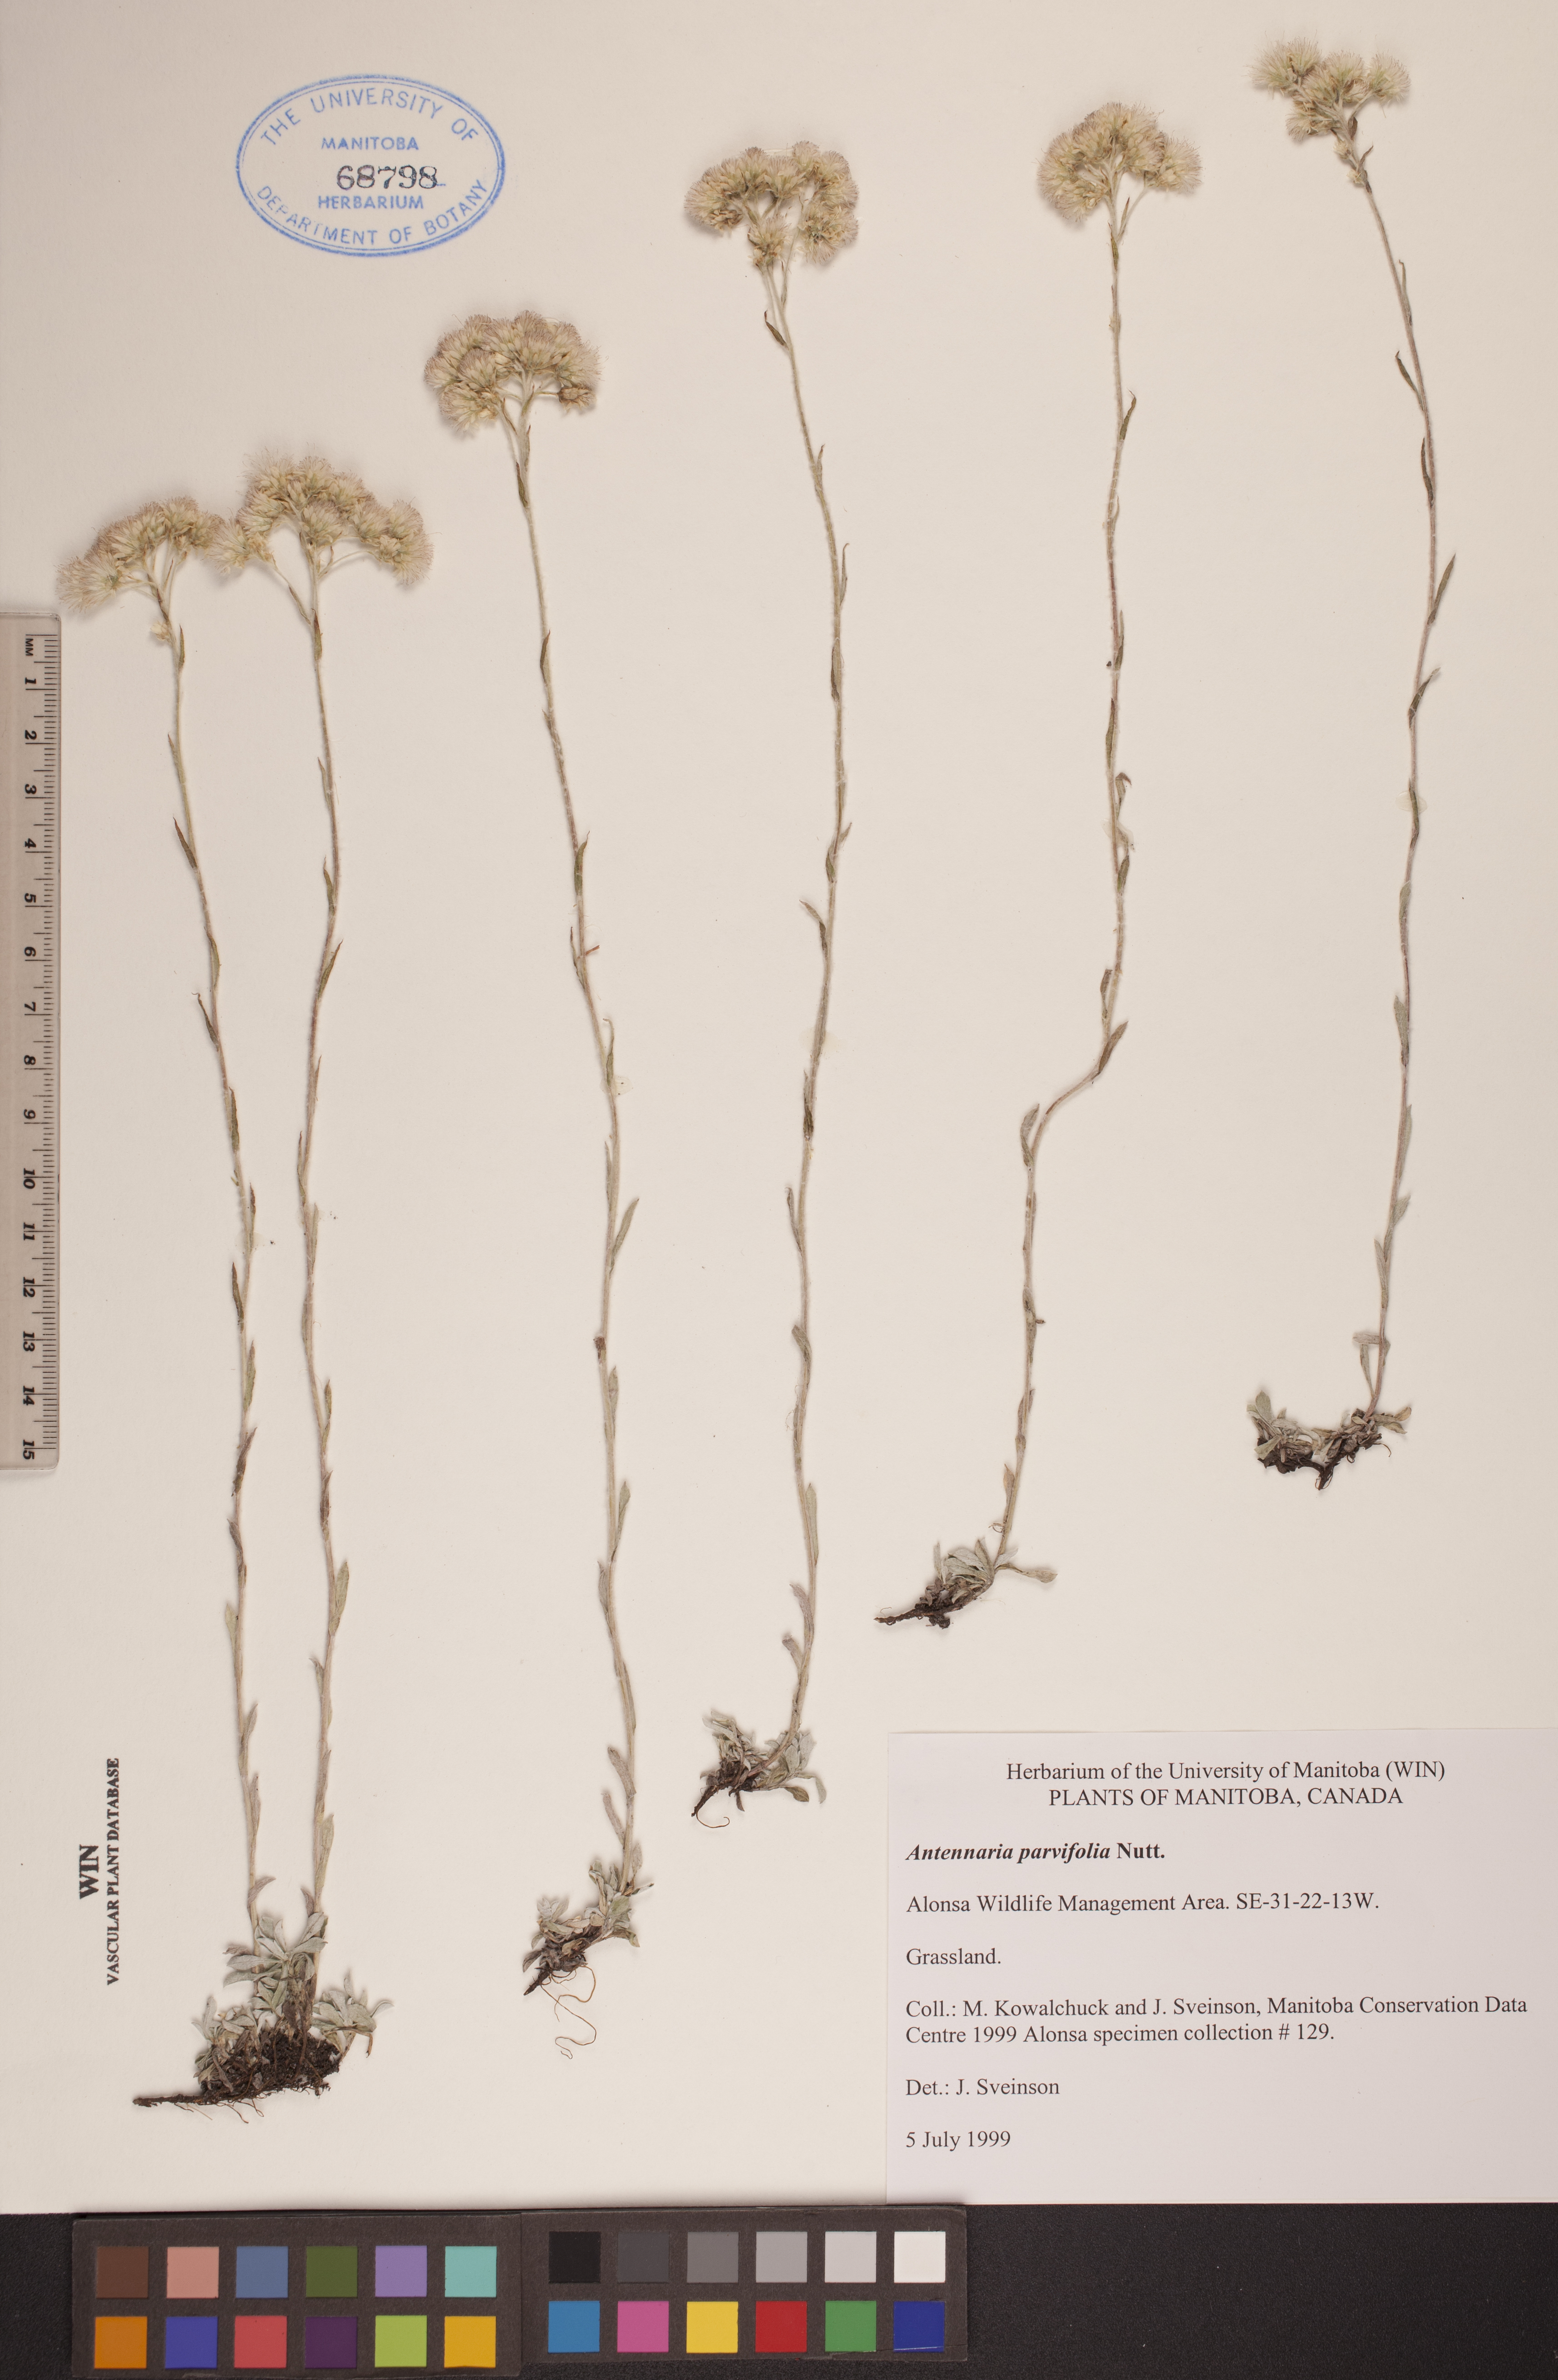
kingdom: Plantae
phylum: Tracheophyta
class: Magnoliopsida
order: Asterales
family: Asteraceae
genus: Antennaria
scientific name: Antennaria parvifolia
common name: Nuttall's pussytoes
